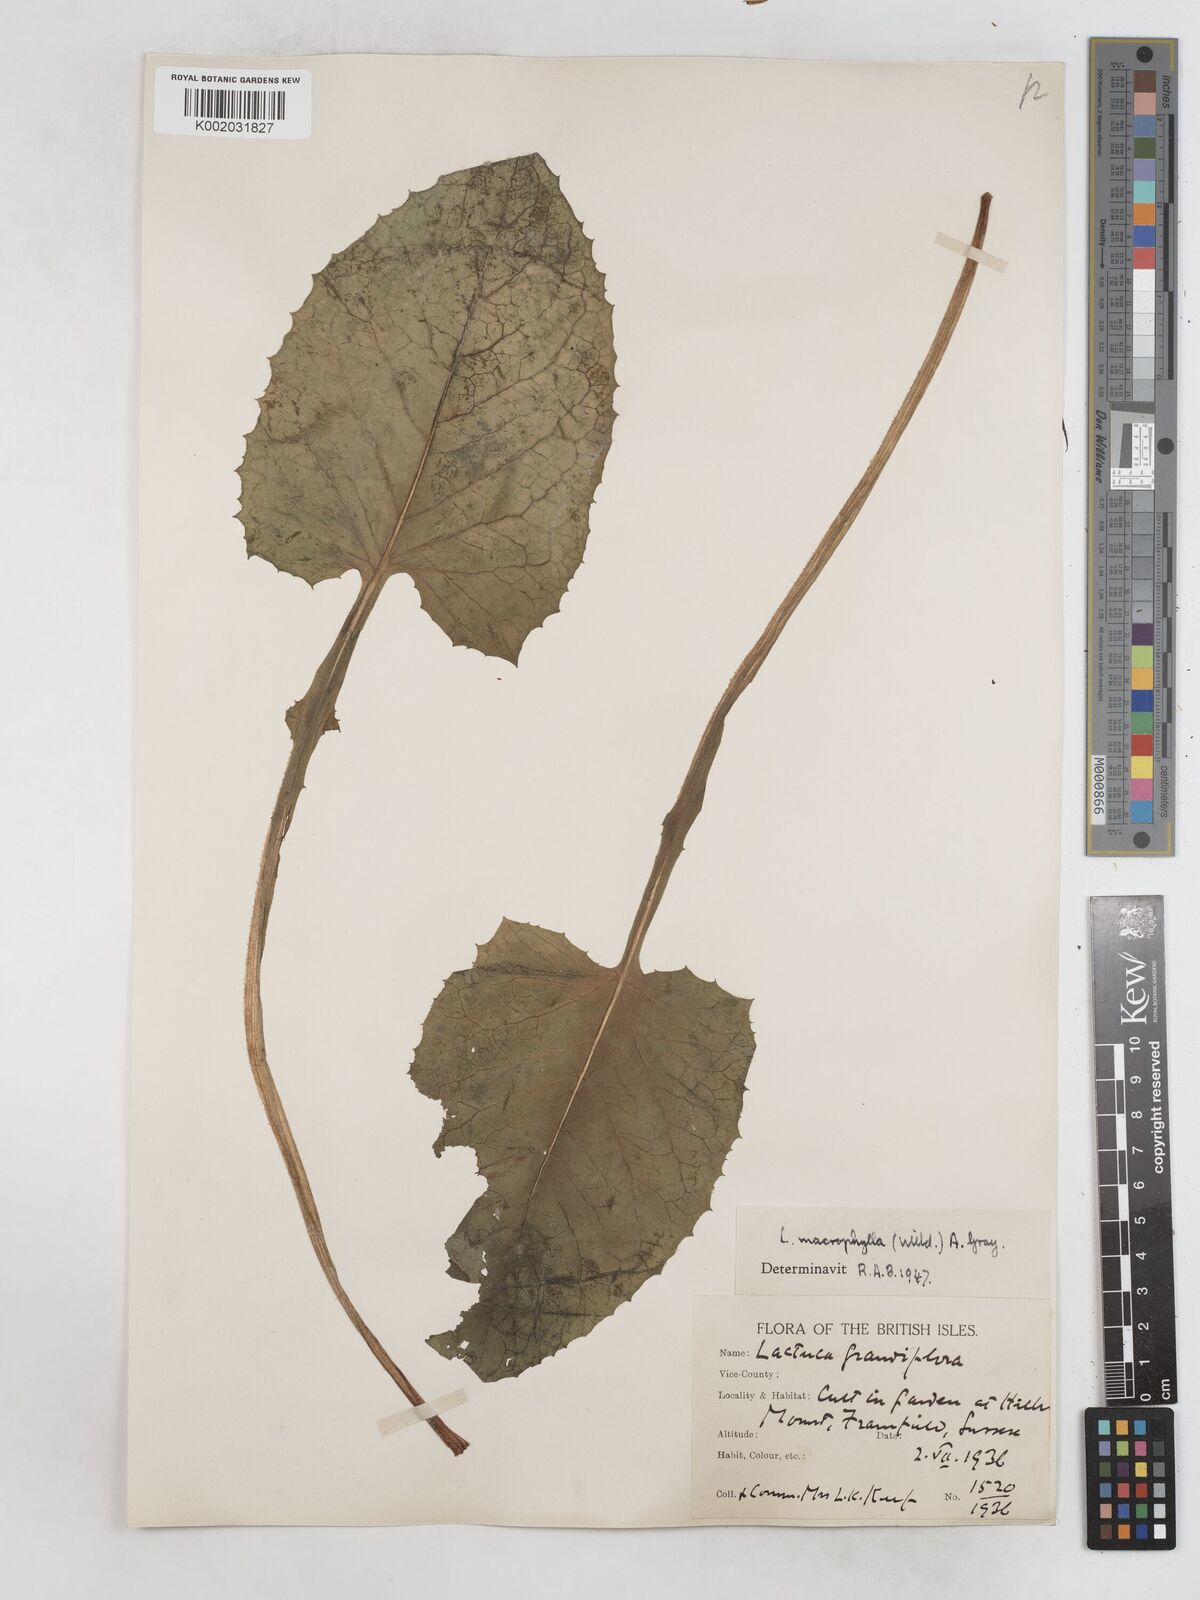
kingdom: Plantae
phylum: Tracheophyta
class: Magnoliopsida
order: Asterales
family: Asteraceae
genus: Lactuca
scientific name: Lactuca macrophylla
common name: Common blue-sow-thistle
